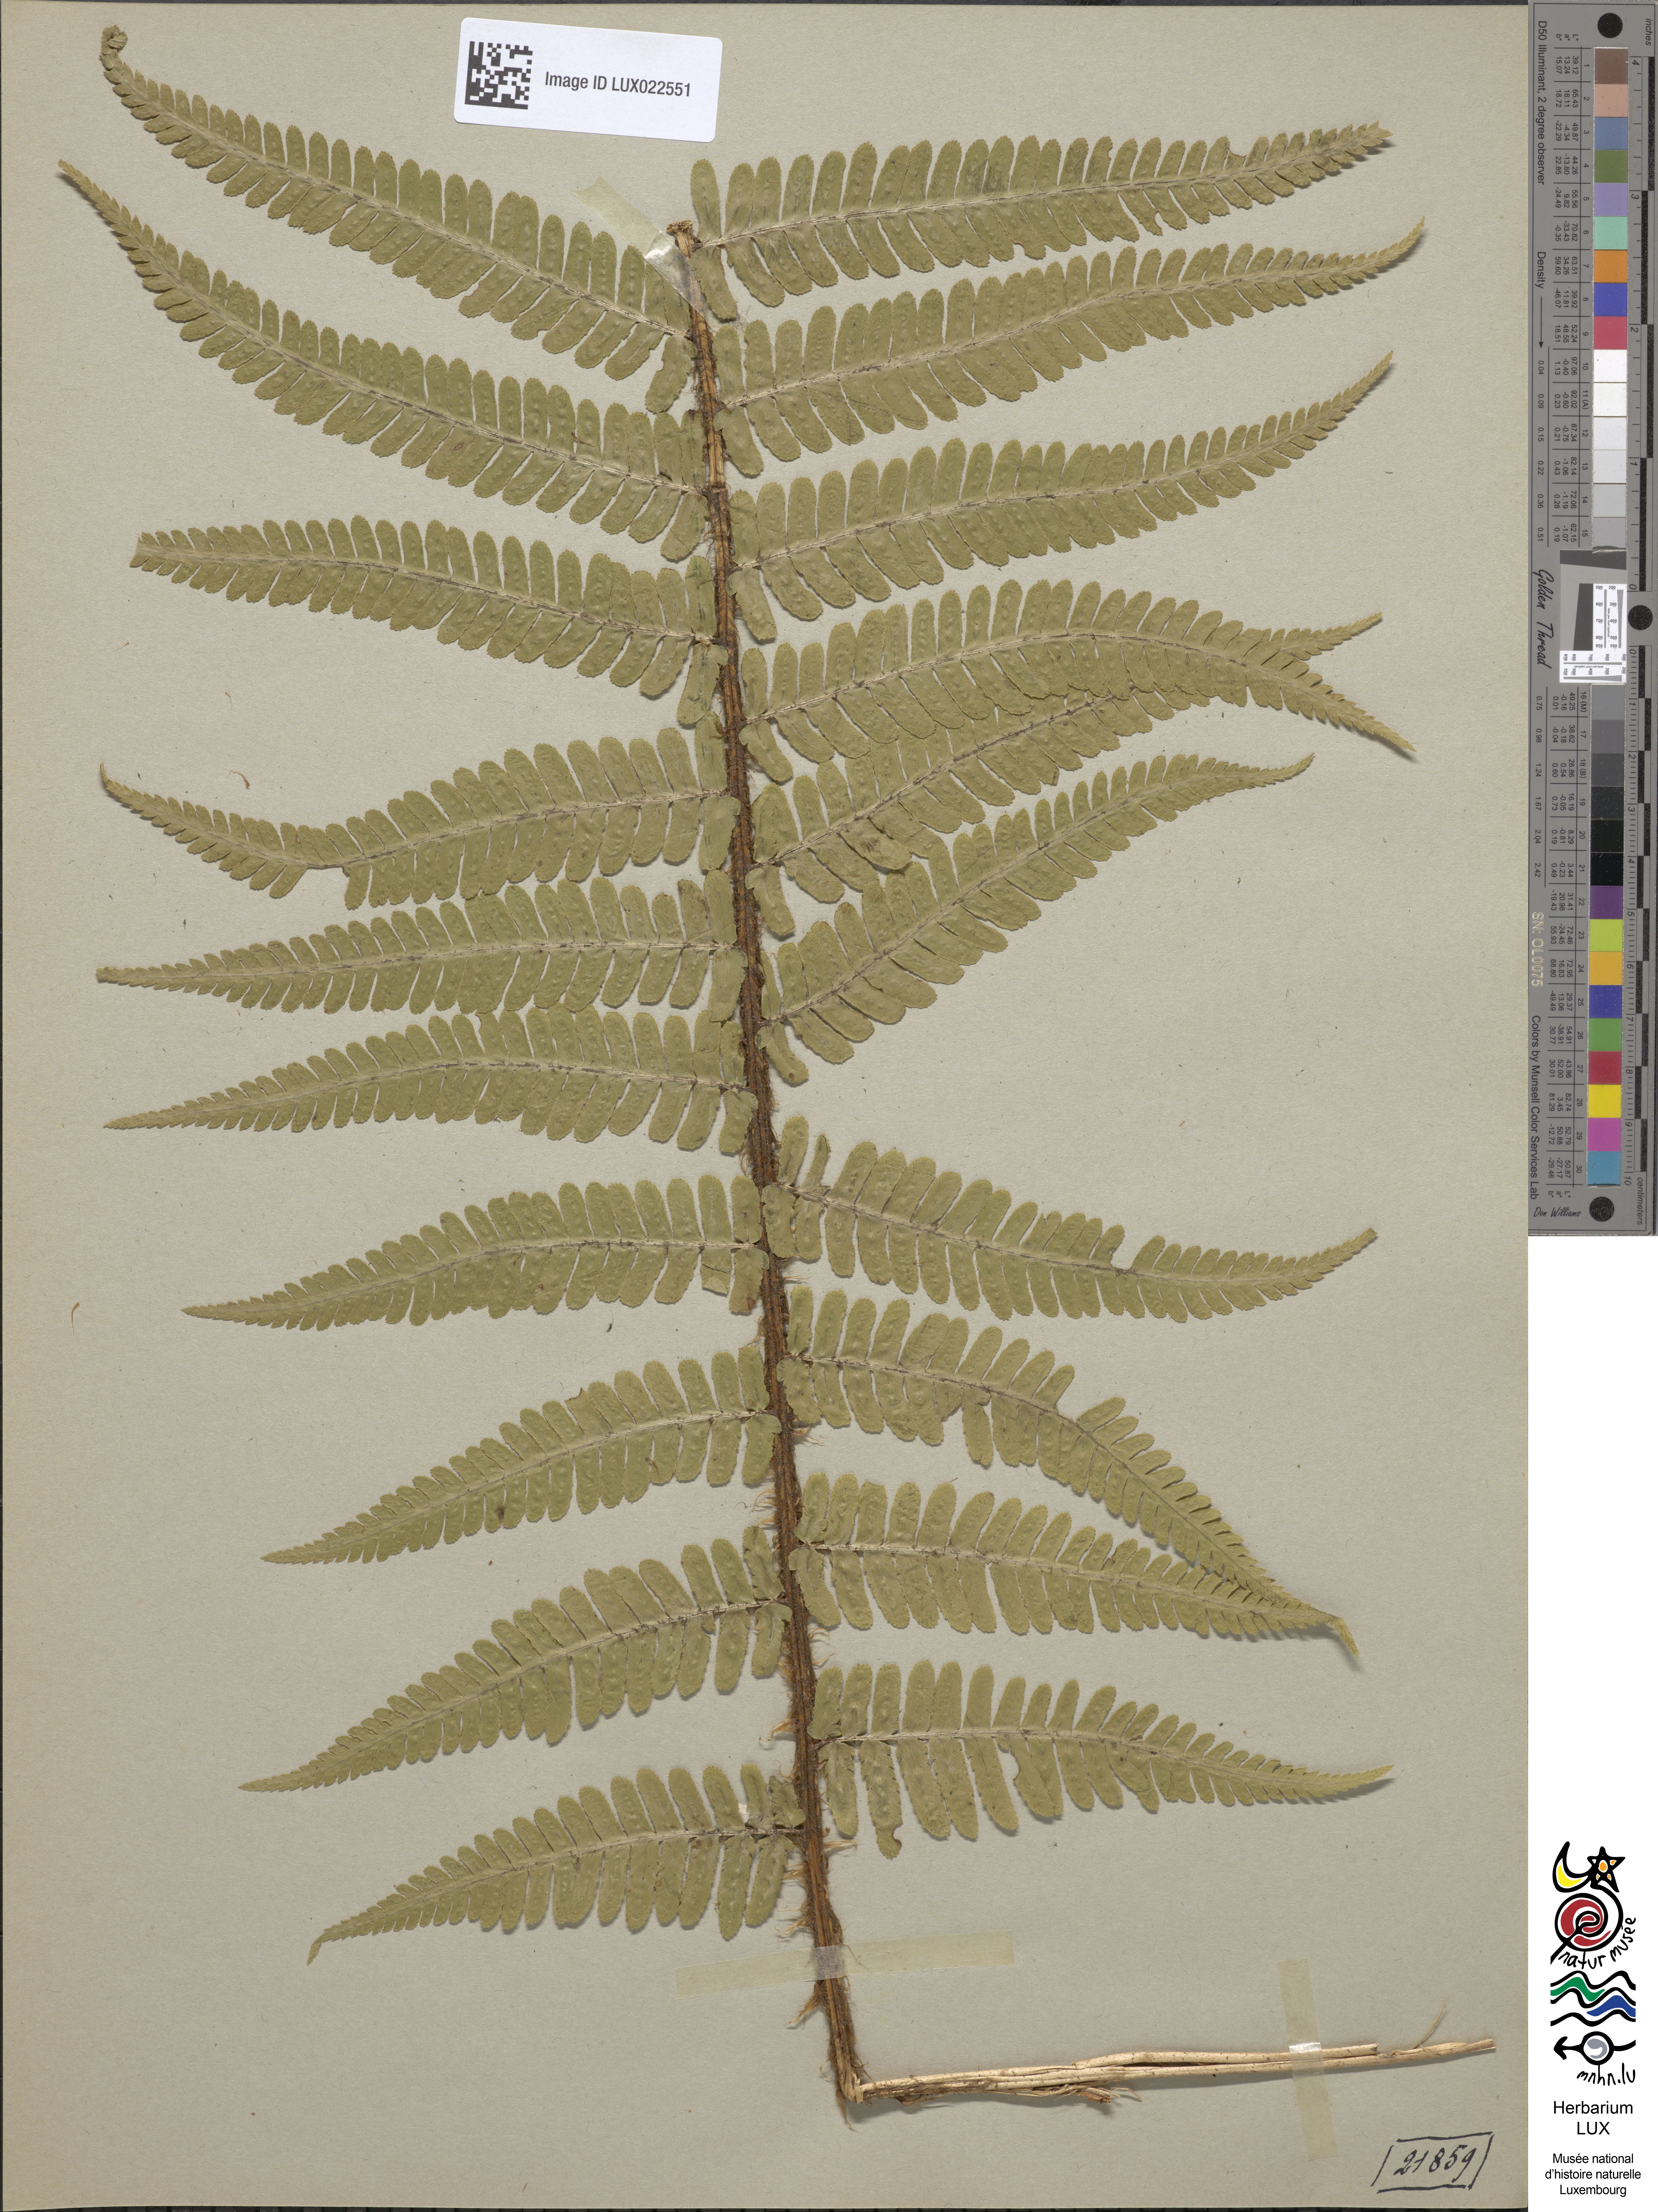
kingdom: Plantae
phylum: Tracheophyta
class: Polypodiopsida
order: Polypodiales
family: Dryopteridaceae
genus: Dryopteris
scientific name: Dryopteris borreri
